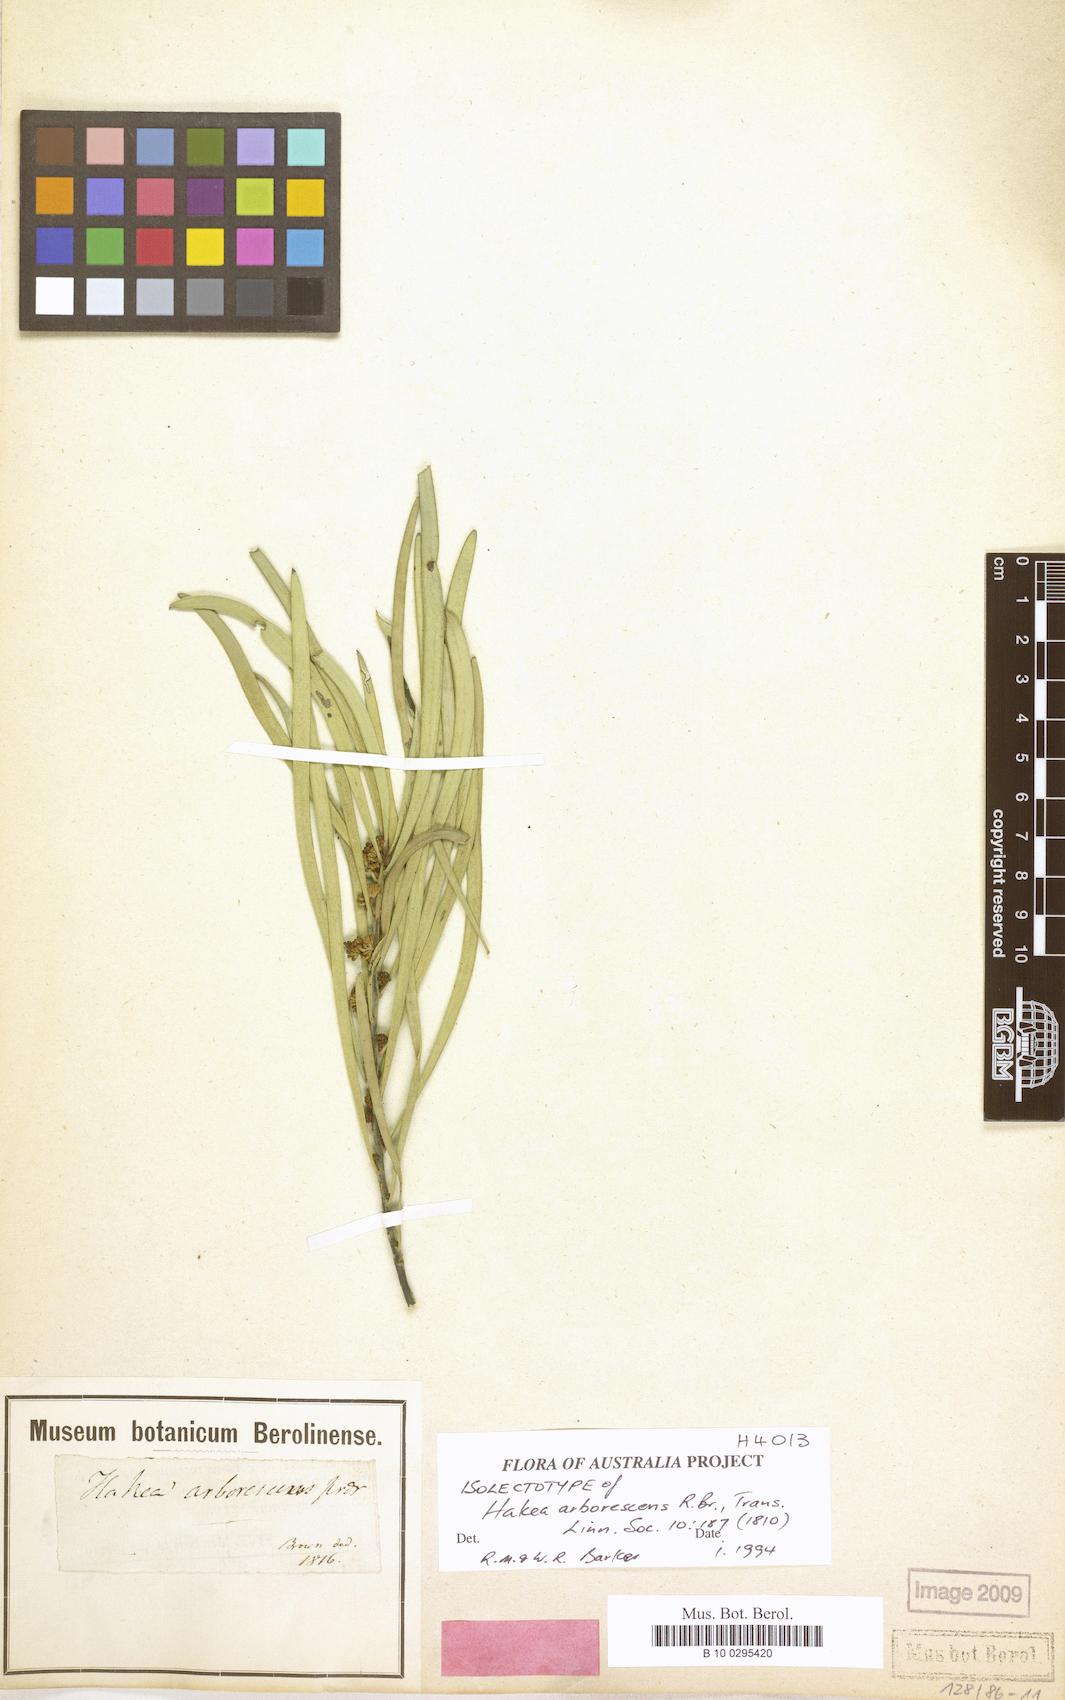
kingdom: Plantae
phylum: Tracheophyta
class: Magnoliopsida
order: Proteales
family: Proteaceae
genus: Hakea
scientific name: Hakea arborescens
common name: Yellow hakea
